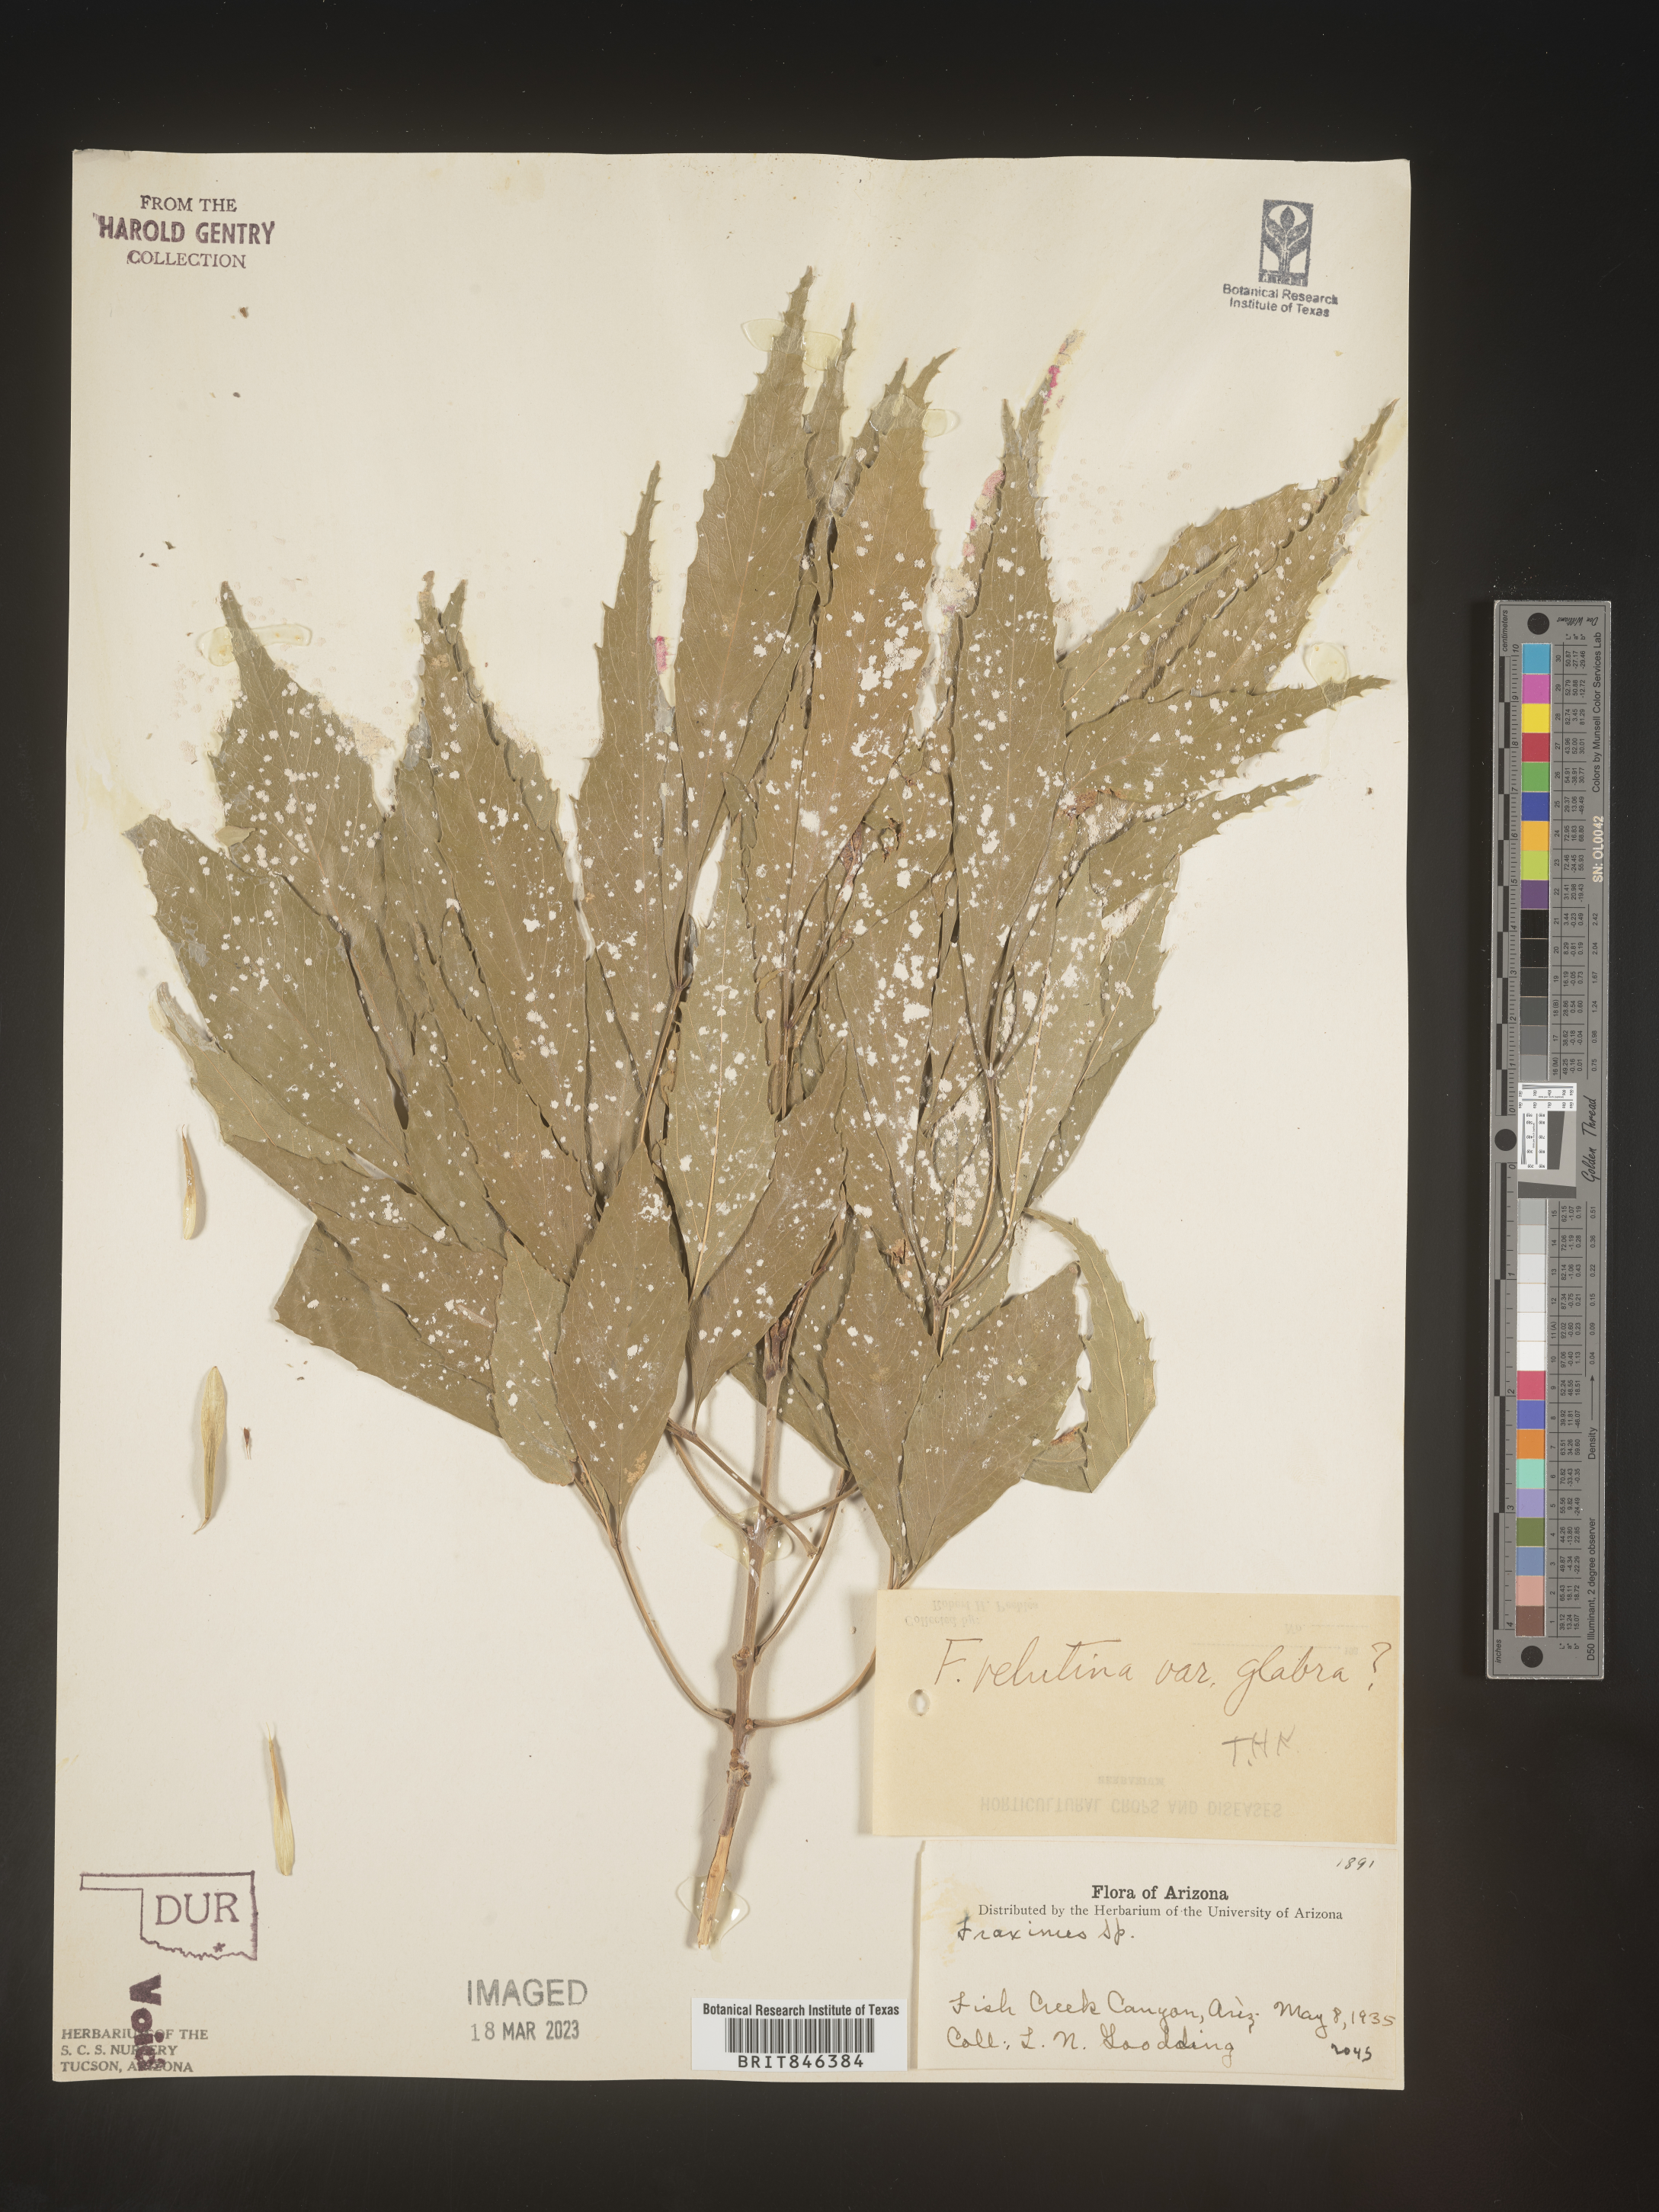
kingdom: Plantae
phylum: Tracheophyta
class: Magnoliopsida
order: Lamiales
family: Oleaceae
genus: Fraxinus
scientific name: Fraxinus velutina
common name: Arizon ash
